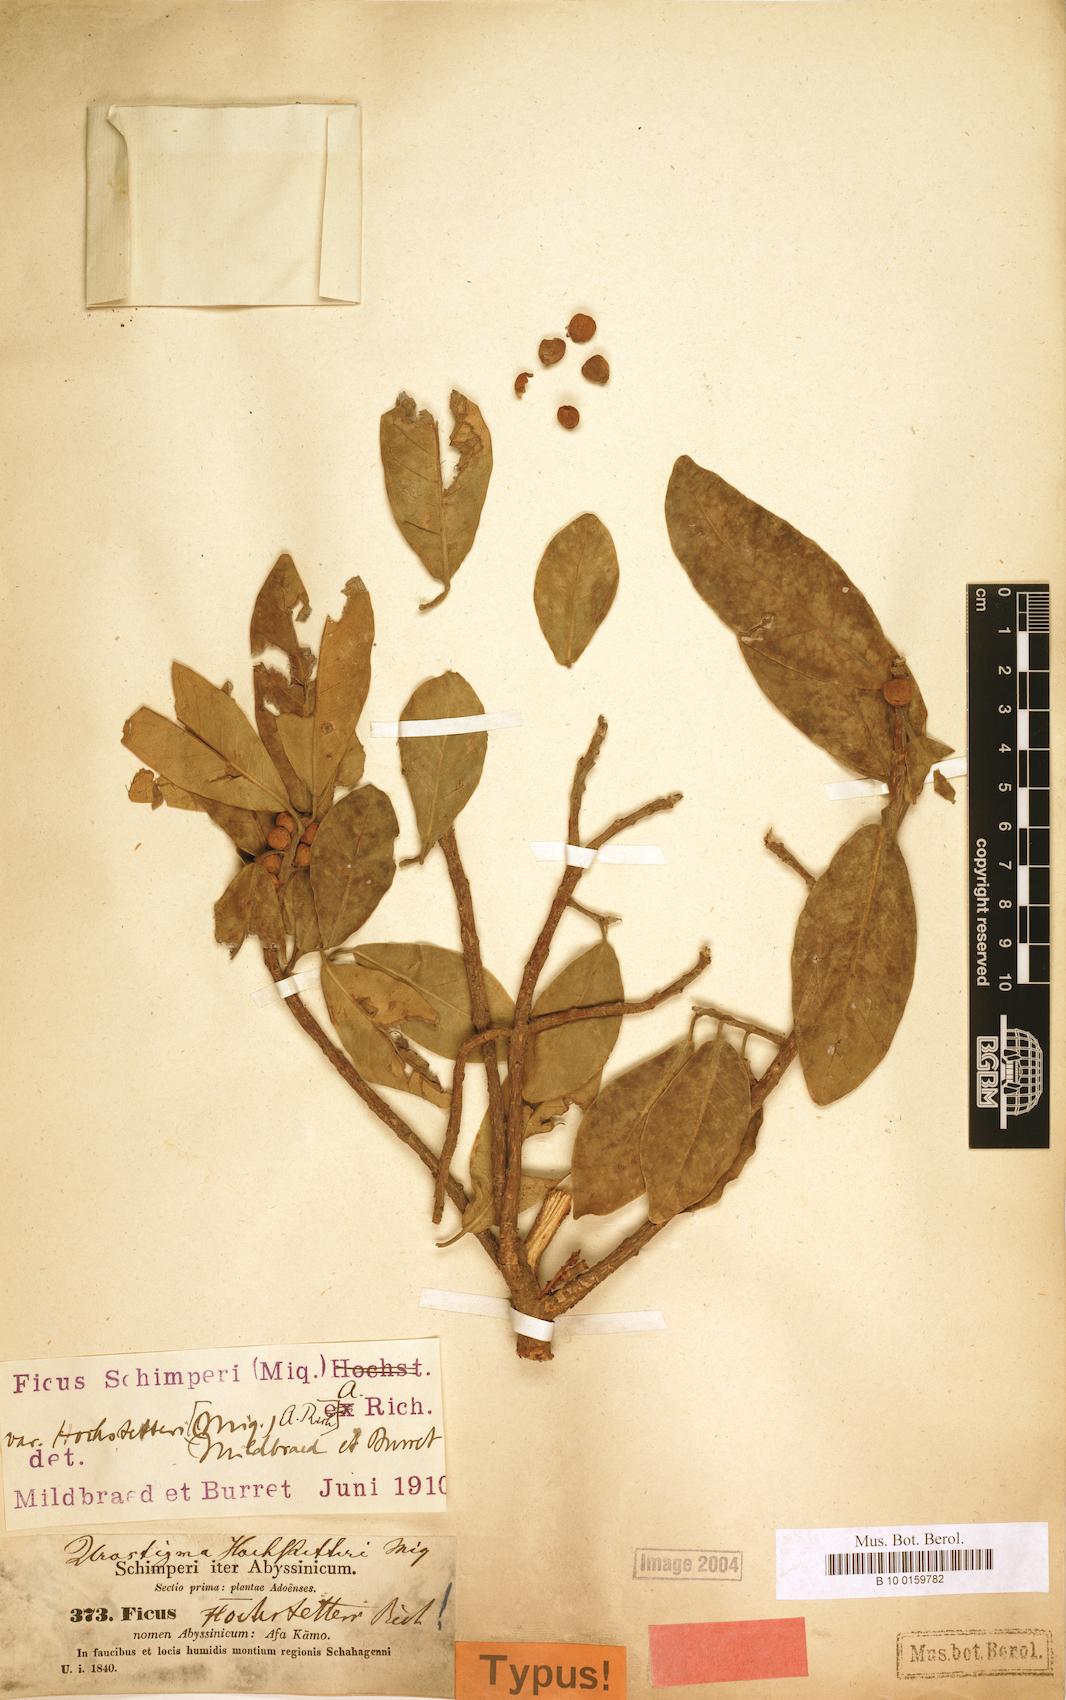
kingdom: Plantae
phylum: Tracheophyta
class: Magnoliopsida
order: Rosales
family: Moraceae
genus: Ficus
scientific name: Ficus thonningii
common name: Fig
